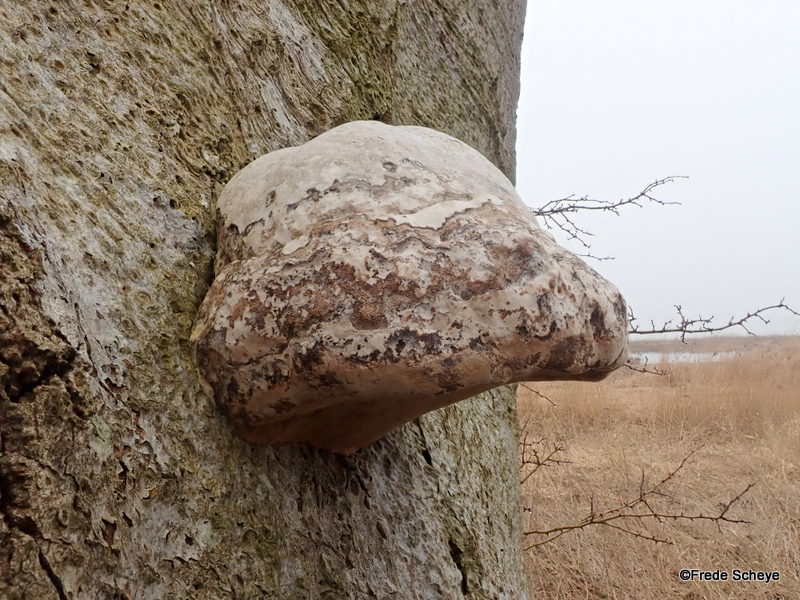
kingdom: Fungi
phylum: Basidiomycota
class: Agaricomycetes
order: Polyporales
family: Polyporaceae
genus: Fomes
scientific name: Fomes fomentarius
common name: tøndersvamp
